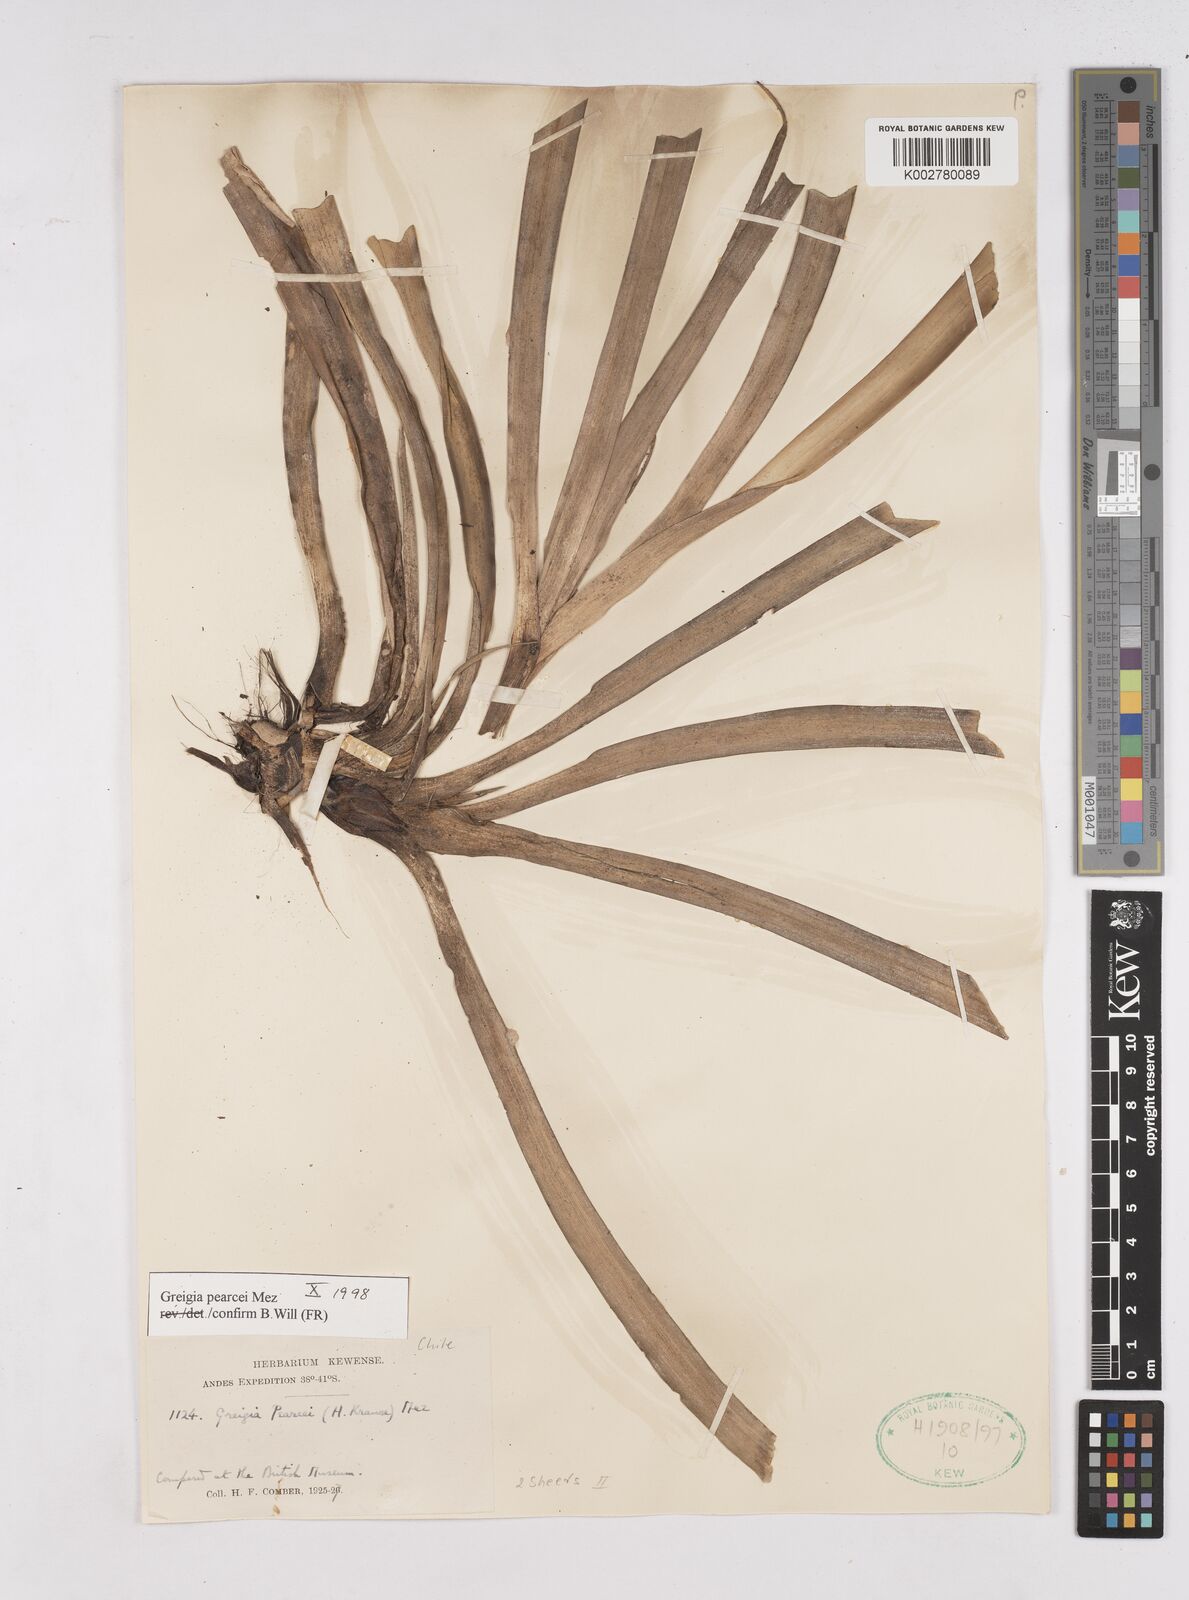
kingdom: Plantae
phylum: Tracheophyta
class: Liliopsida
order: Poales
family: Bromeliaceae
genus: Greigia
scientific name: Greigia pearcei
